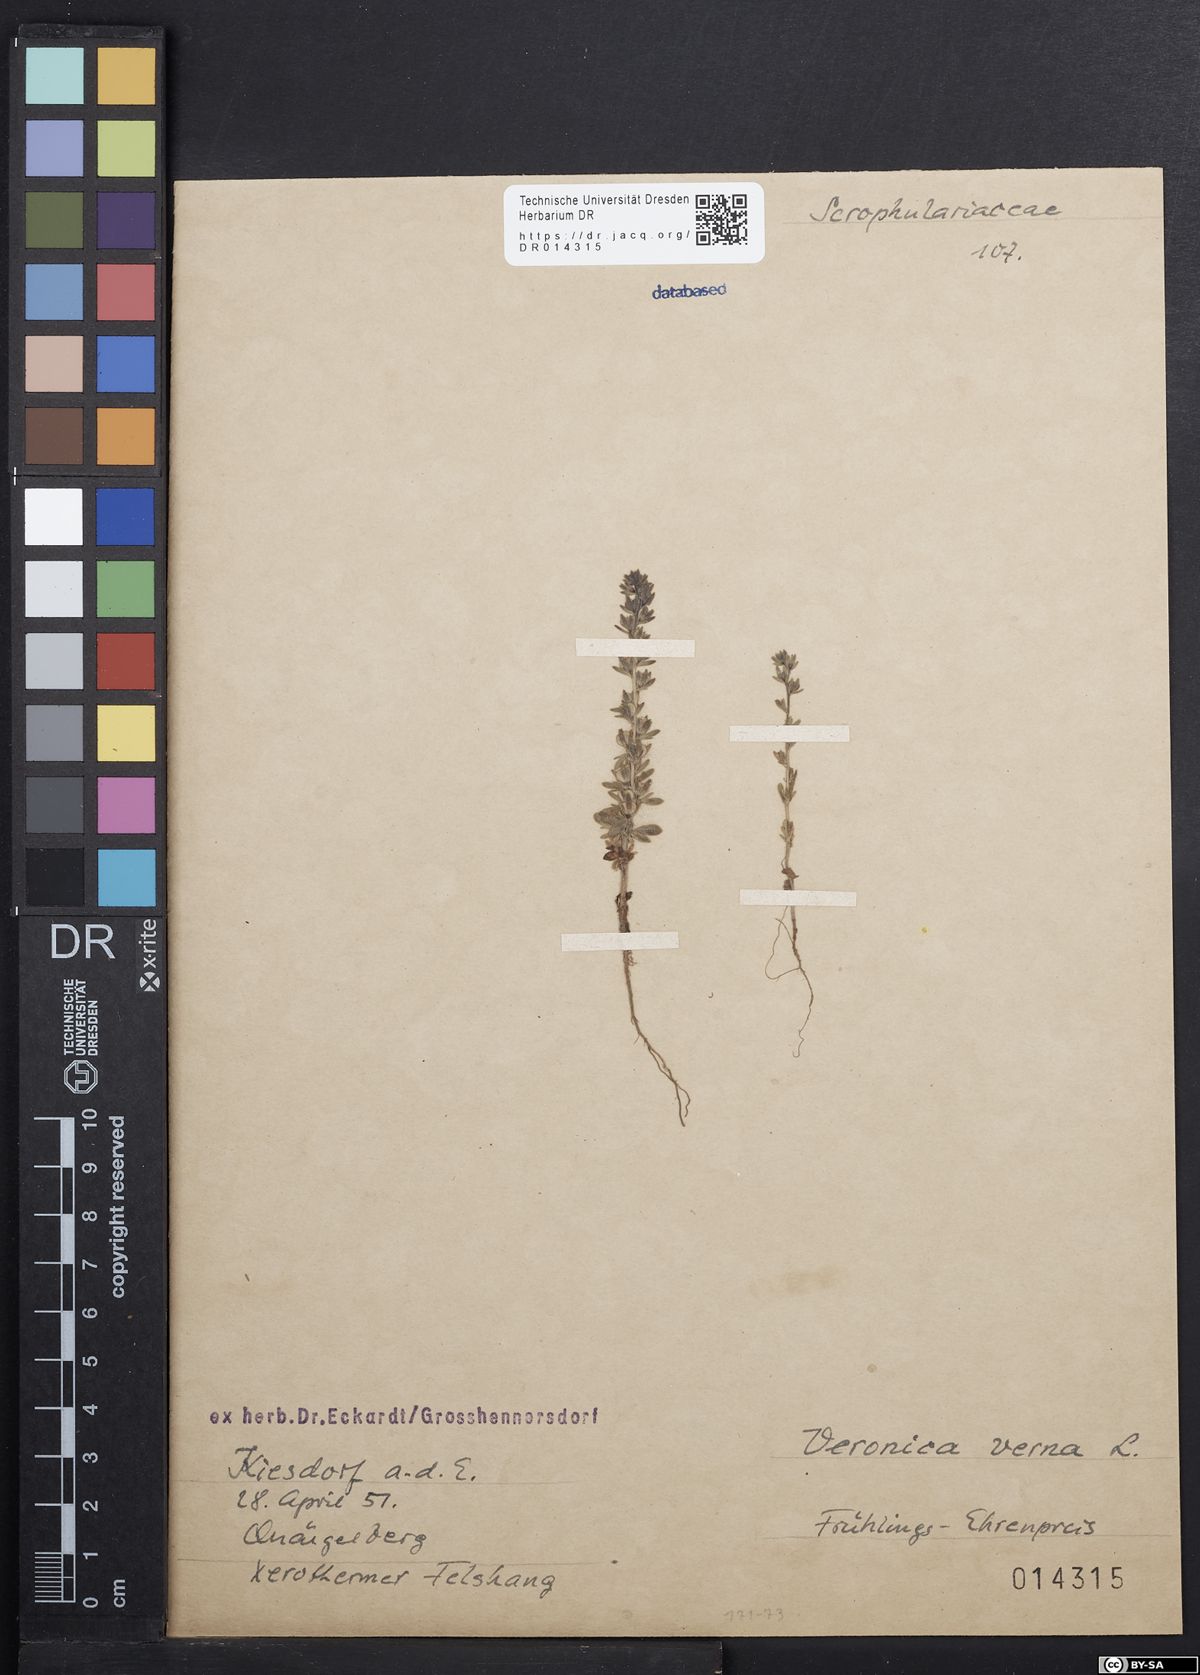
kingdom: Plantae
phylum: Tracheophyta
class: Magnoliopsida
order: Lamiales
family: Plantaginaceae
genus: Veronica
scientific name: Veronica verna
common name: Spring speedwell
